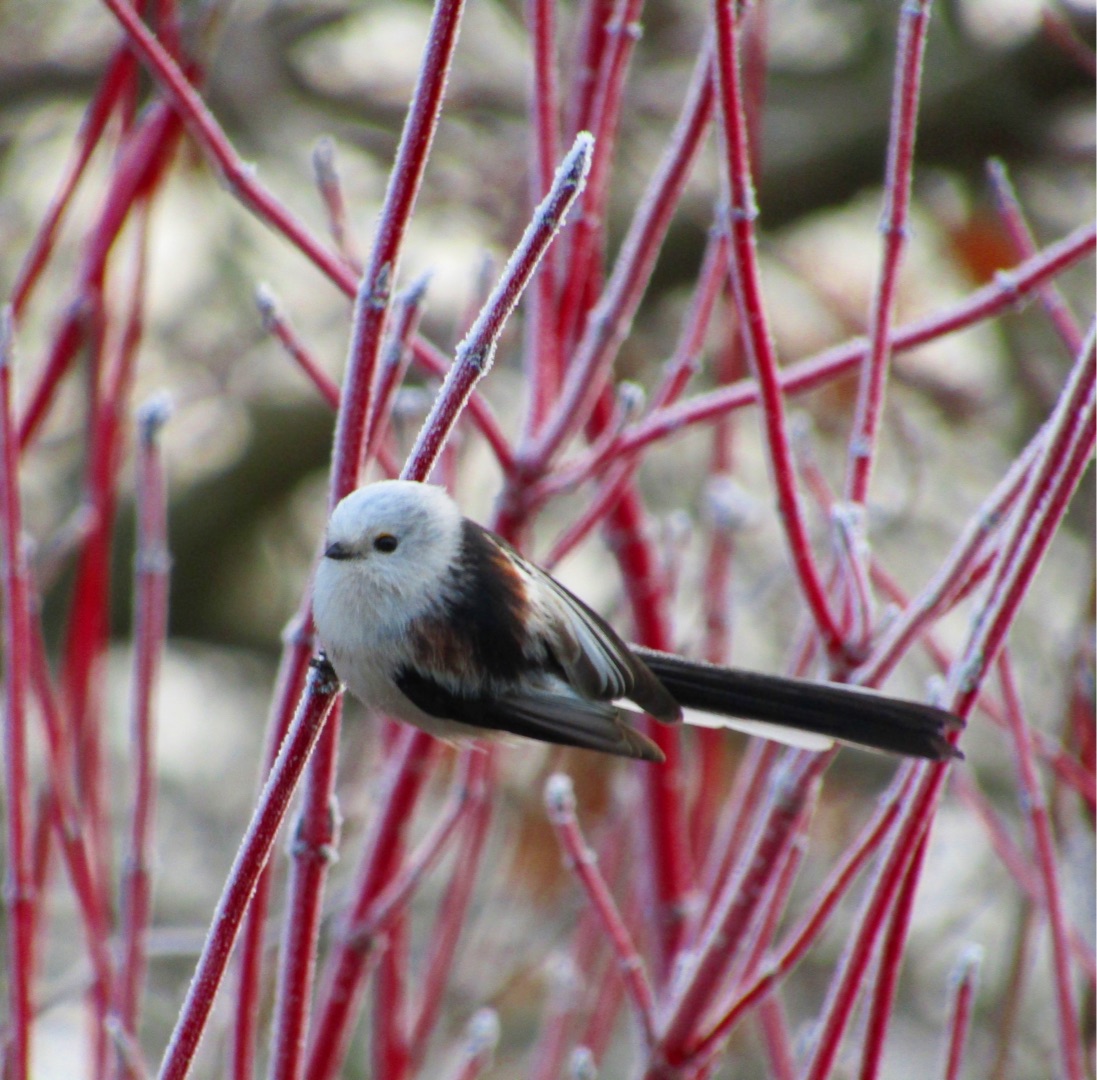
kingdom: Animalia
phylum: Chordata
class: Aves
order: Passeriformes
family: Aegithalidae
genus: Aegithalos
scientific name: Aegithalos caudatus
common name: Halemejse
